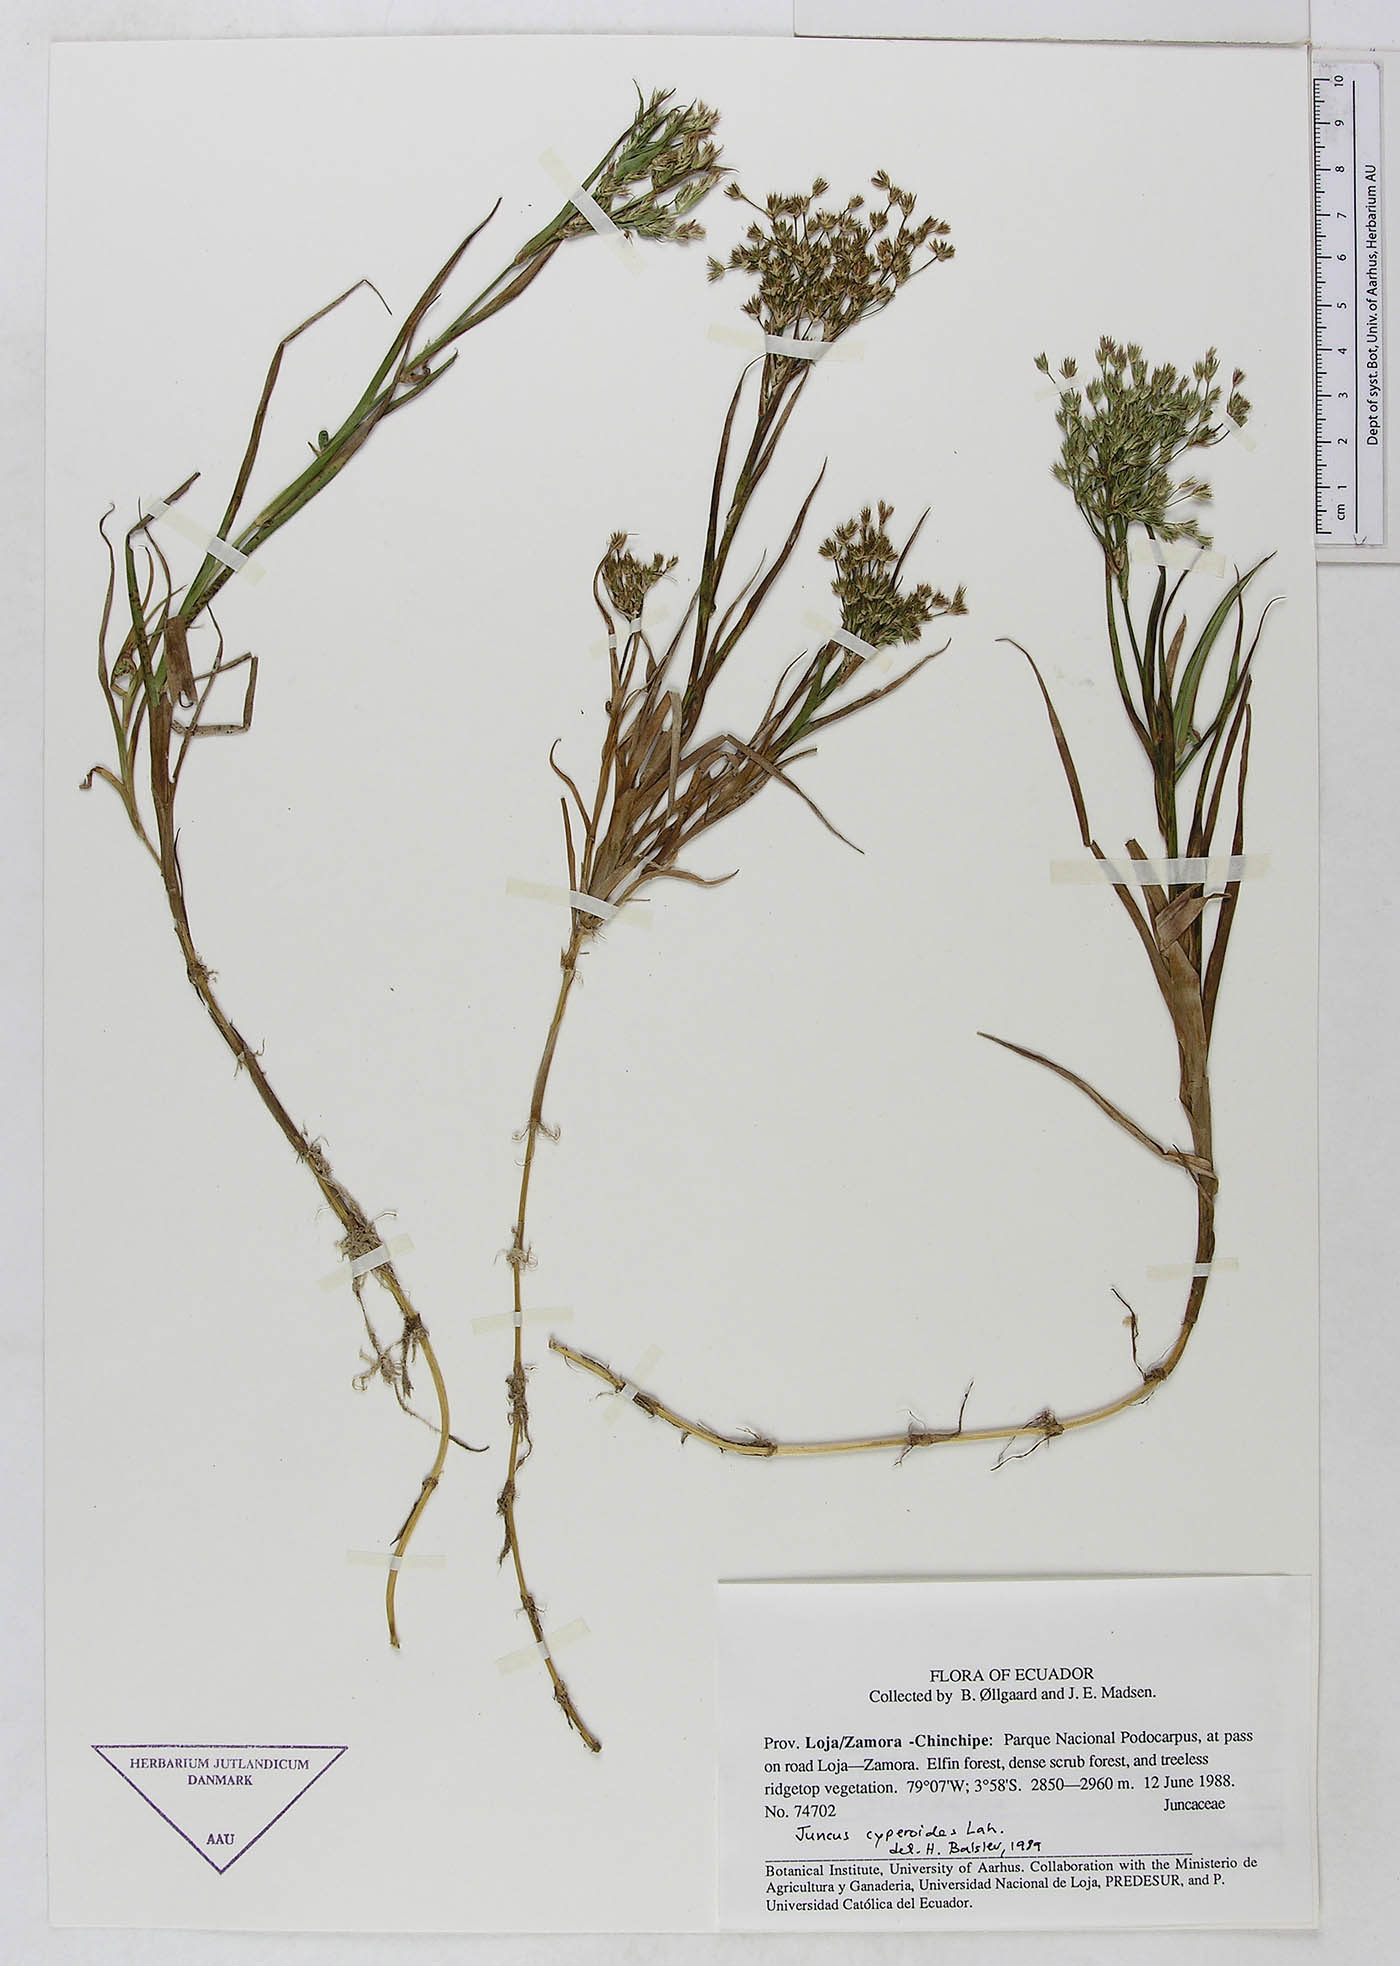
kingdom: Plantae
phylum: Tracheophyta
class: Liliopsida
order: Poales
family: Juncaceae
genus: Juncus
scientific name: Juncus cyperoides
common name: Forbestown rush
